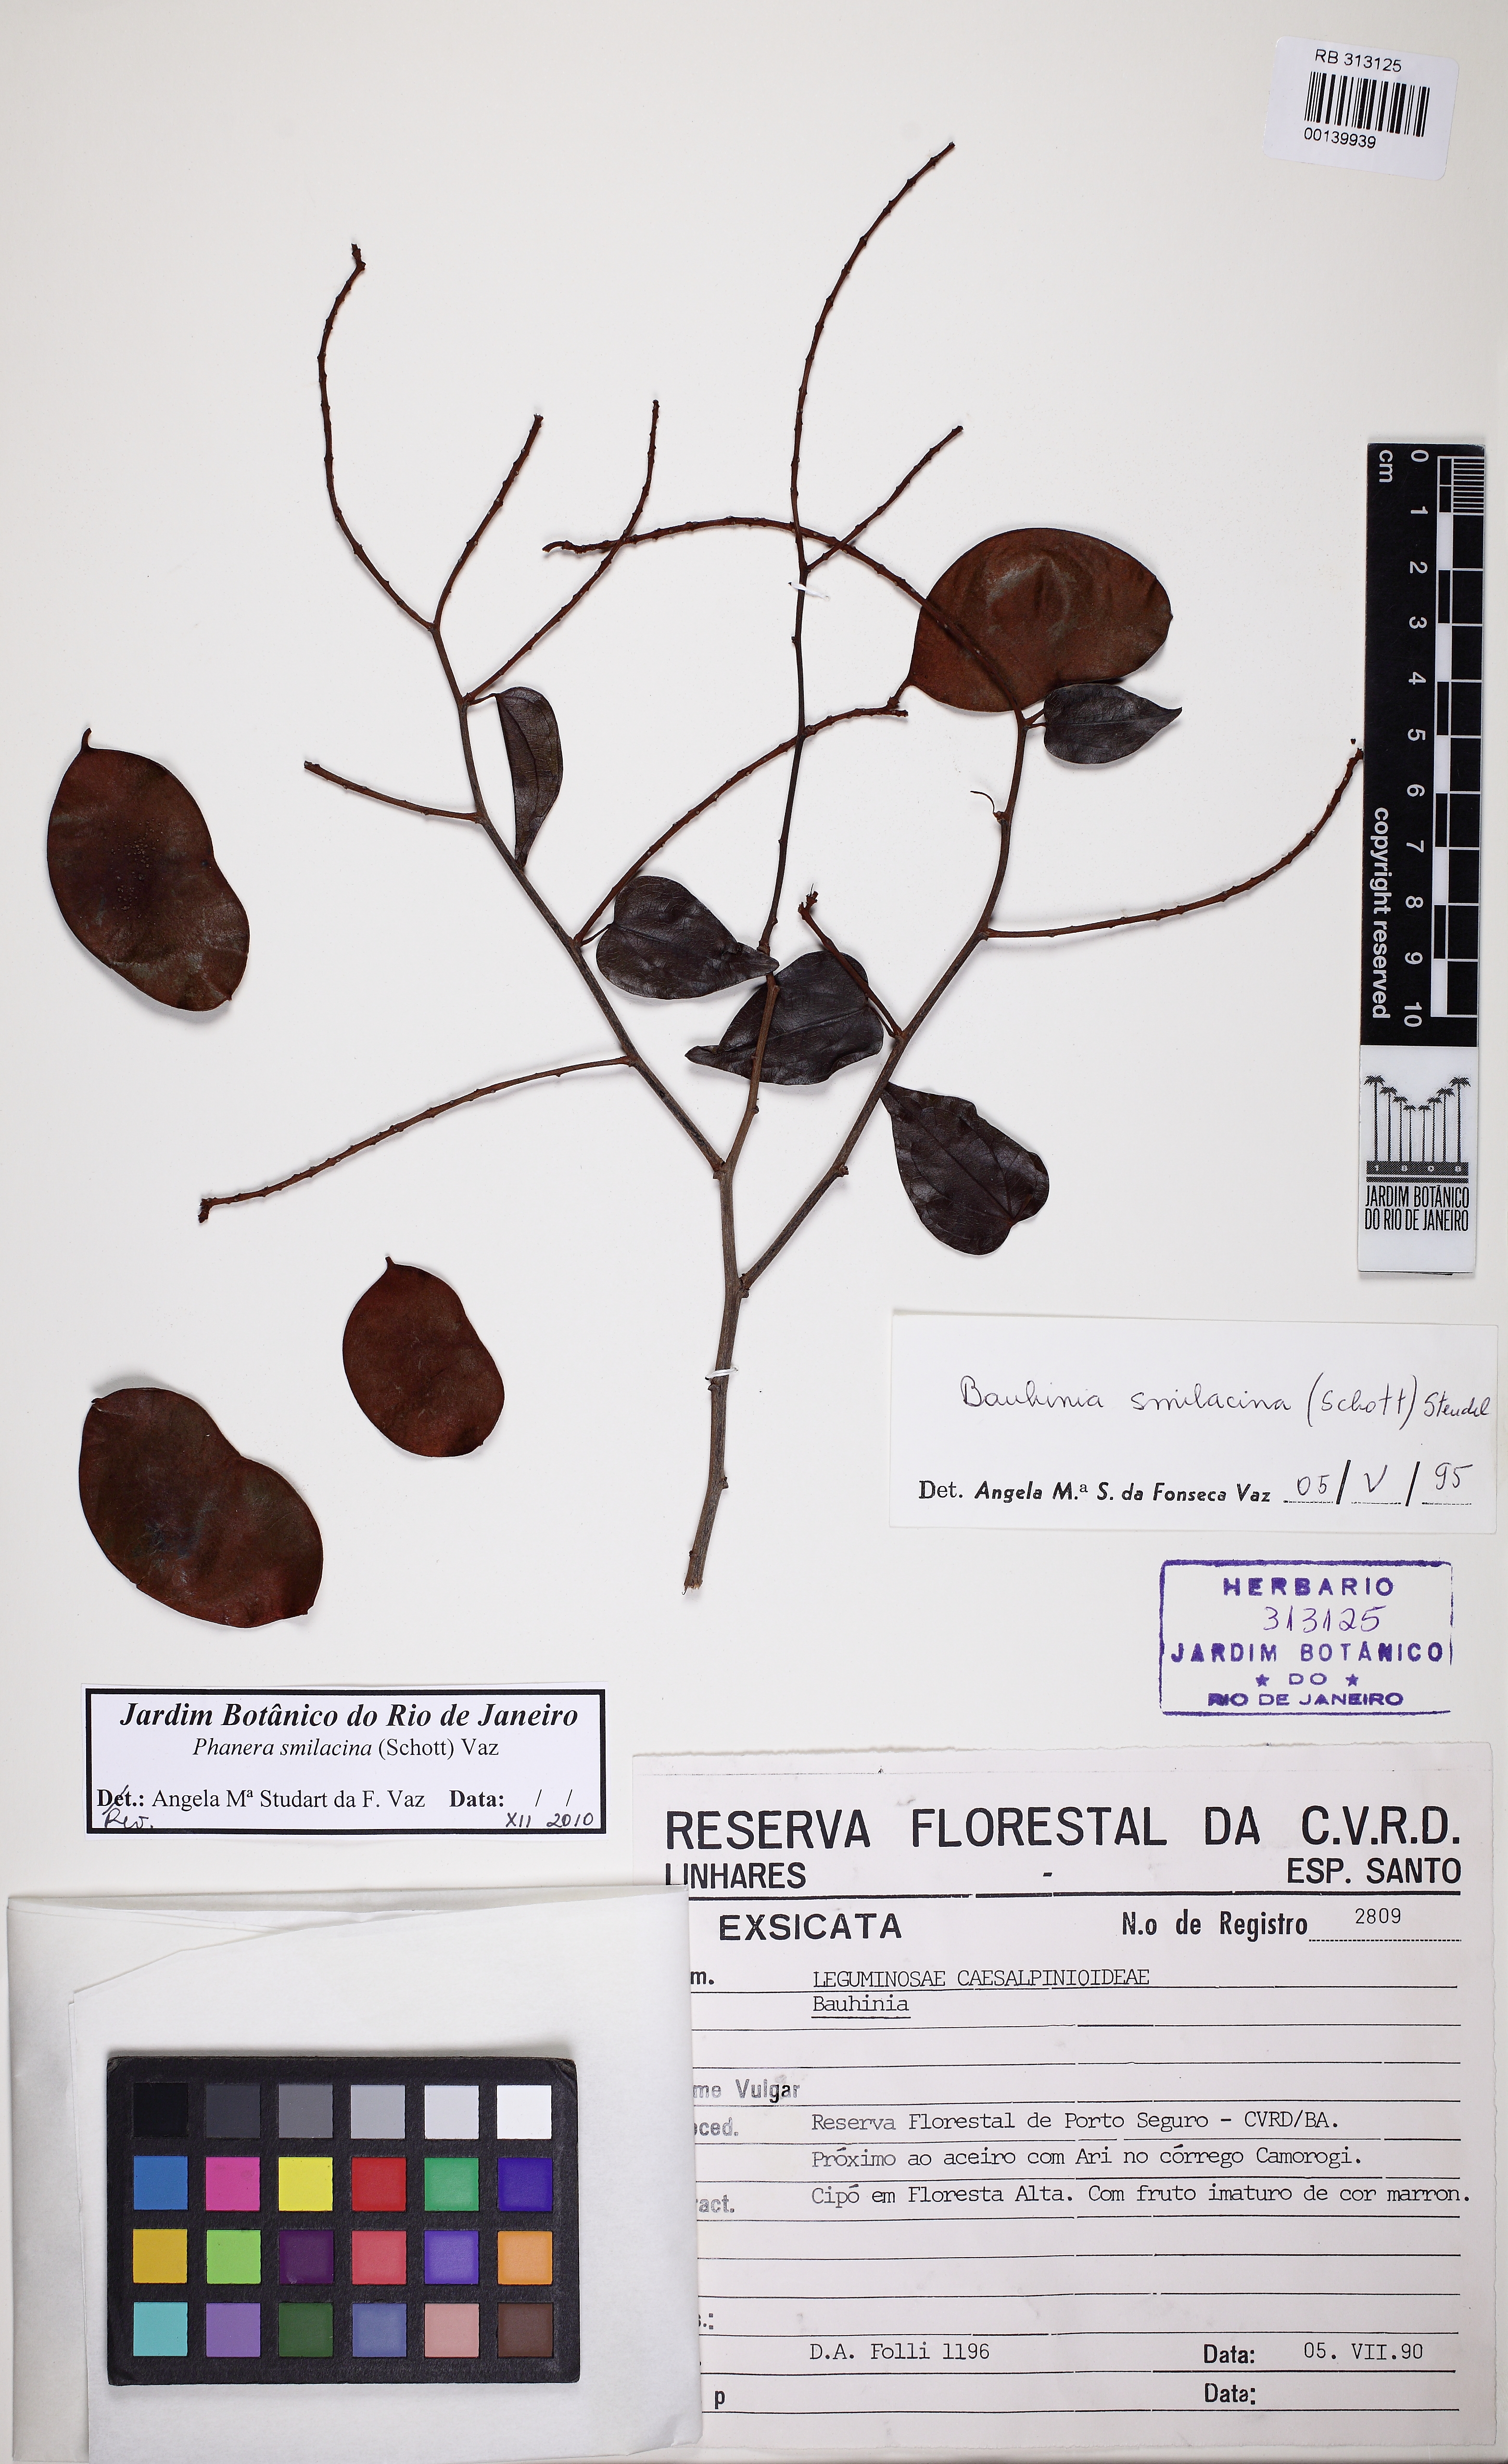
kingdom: Plantae
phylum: Tracheophyta
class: Magnoliopsida
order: Fabales
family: Fabaceae
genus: Schnella
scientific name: Schnella smilacina
